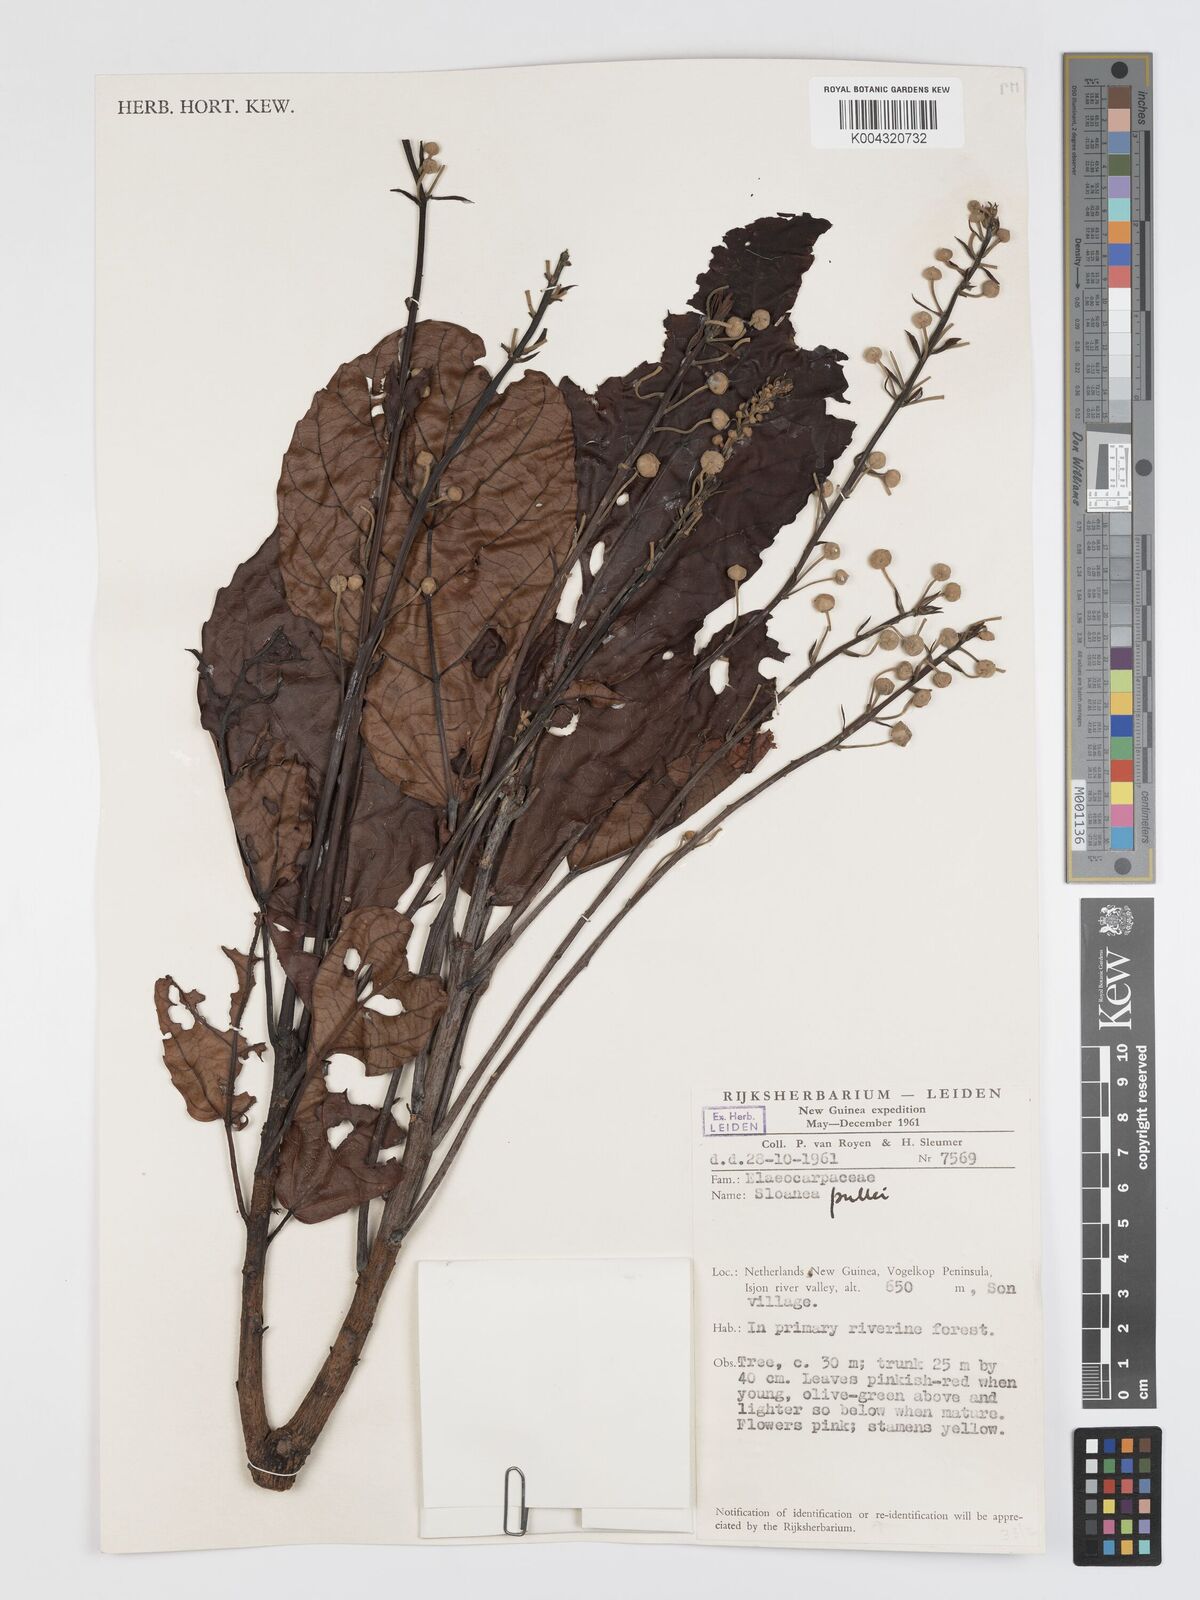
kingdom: Plantae
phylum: Tracheophyta
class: Magnoliopsida
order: Oxalidales
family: Elaeocarpaceae
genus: Sloanea
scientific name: Sloanea pullei
